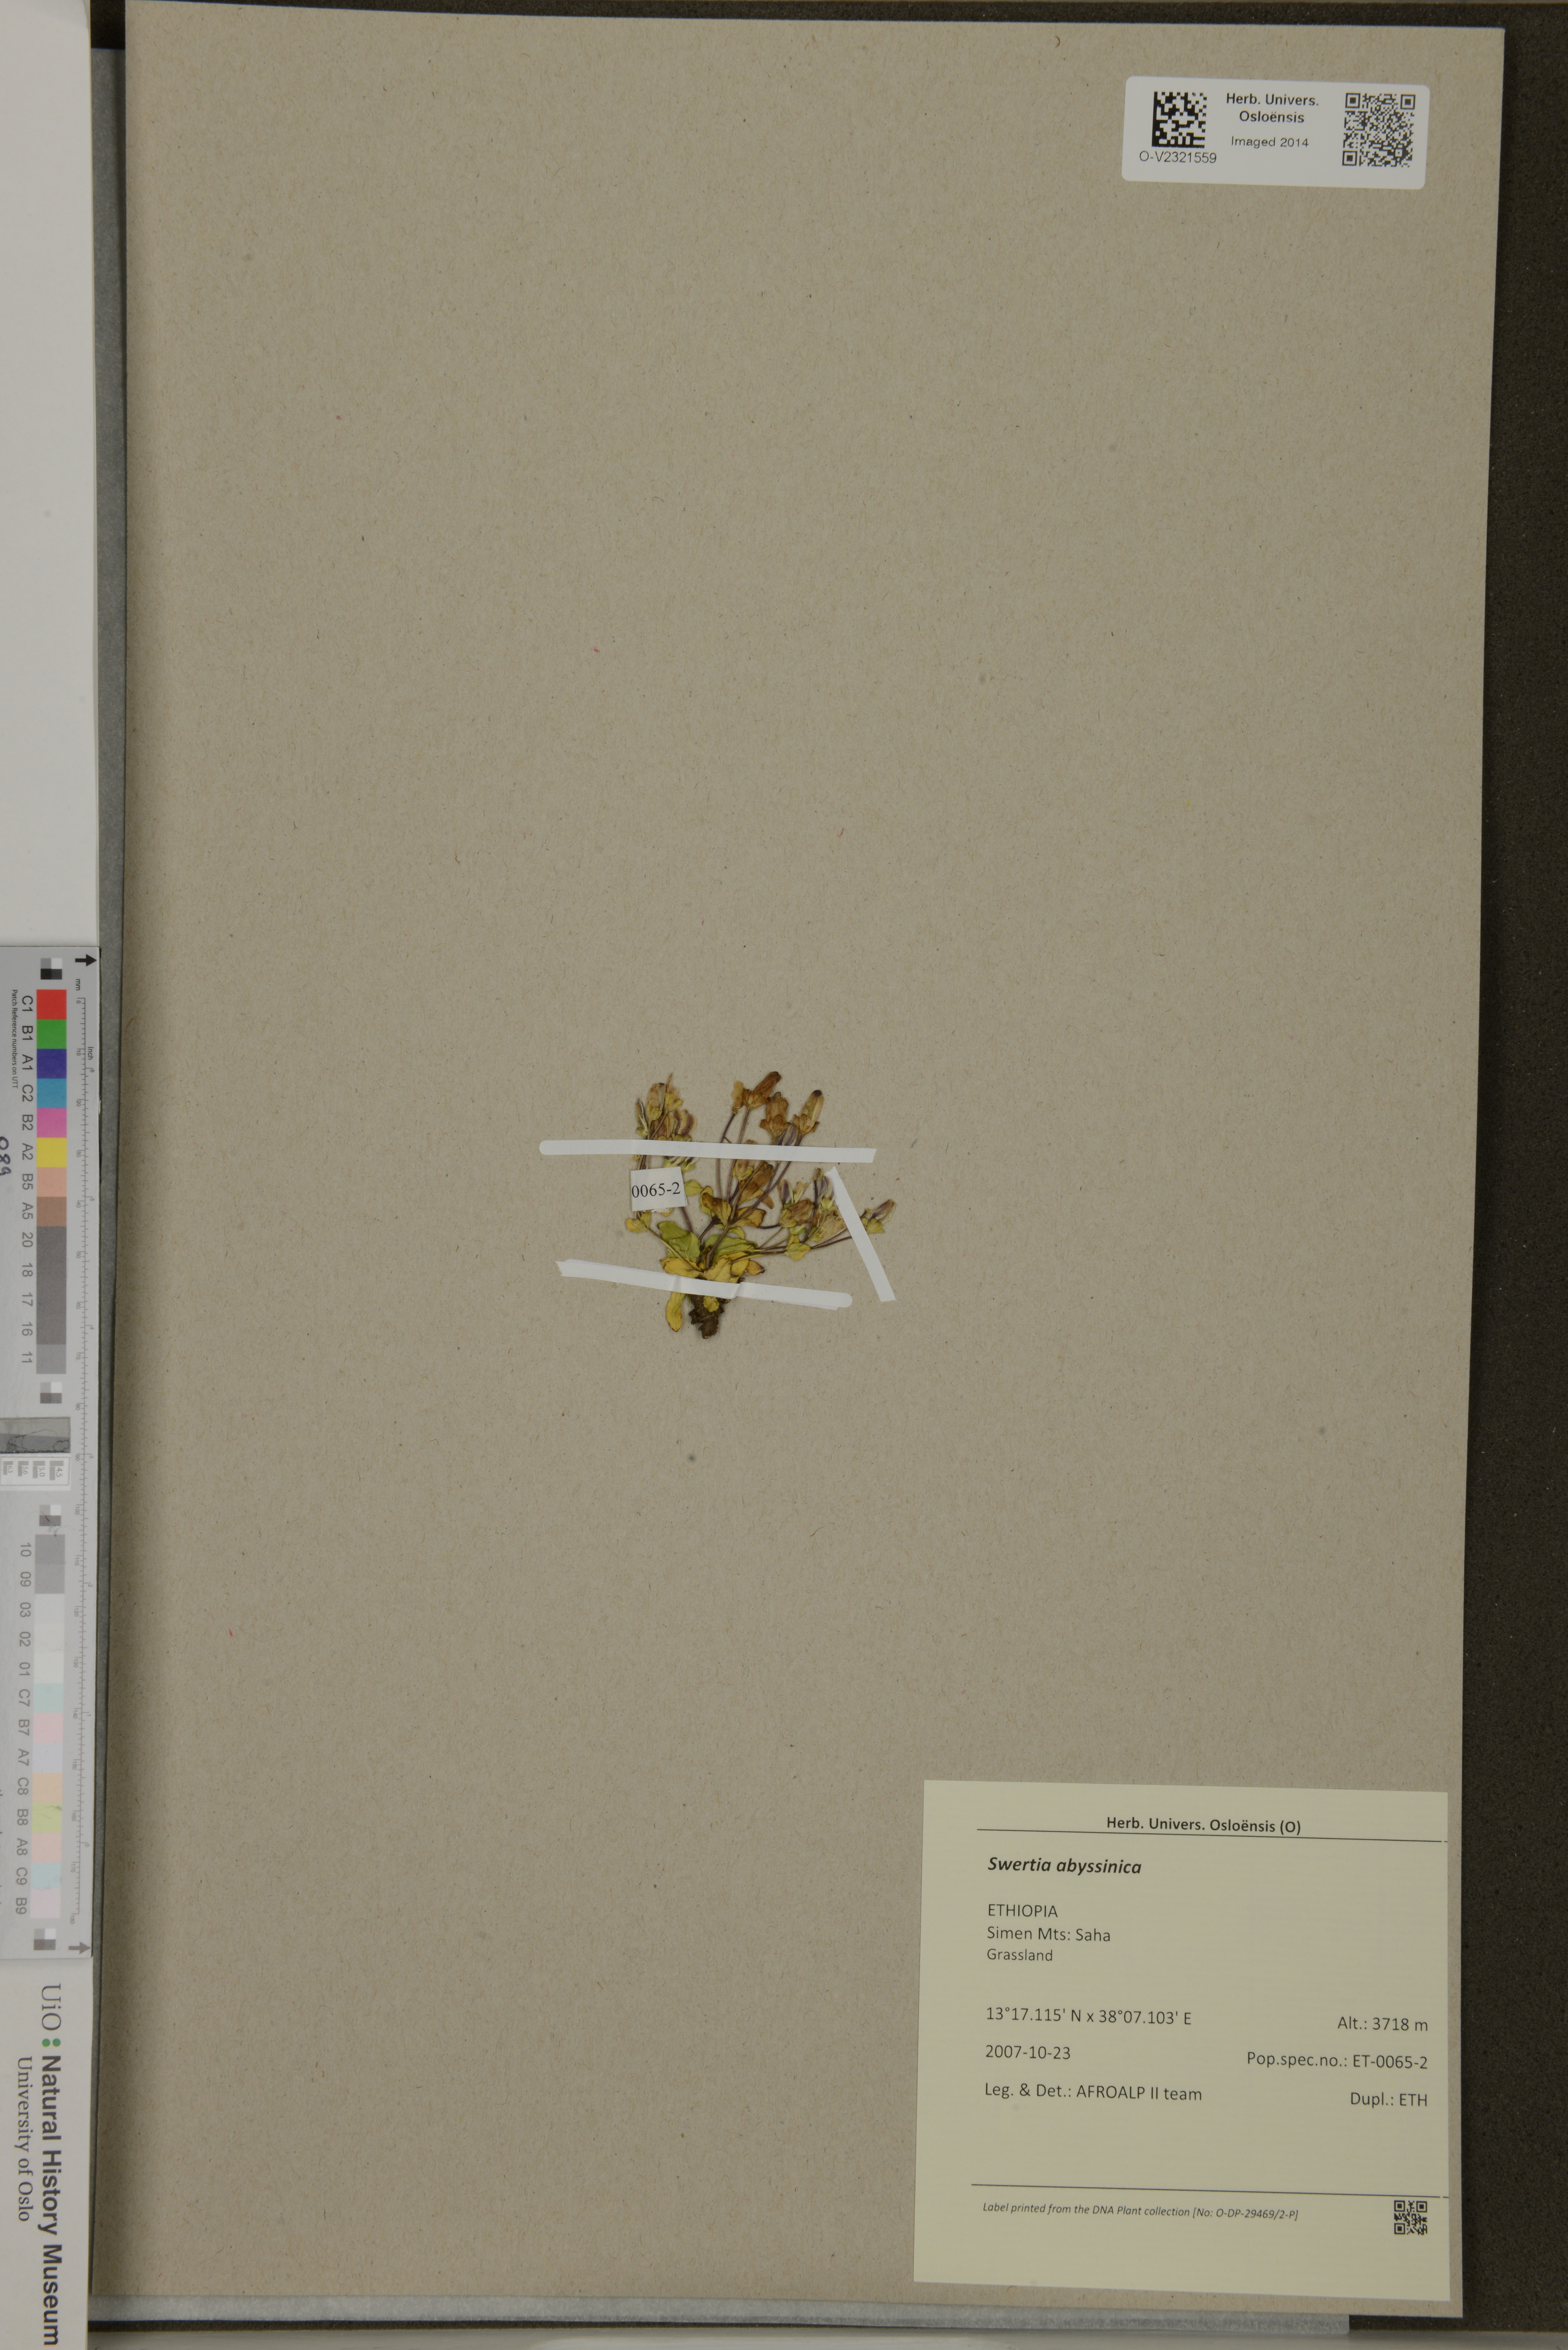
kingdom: Plantae
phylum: Tracheophyta
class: Magnoliopsida
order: Gentianales
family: Gentianaceae
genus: Swertia
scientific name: Swertia abyssinica
